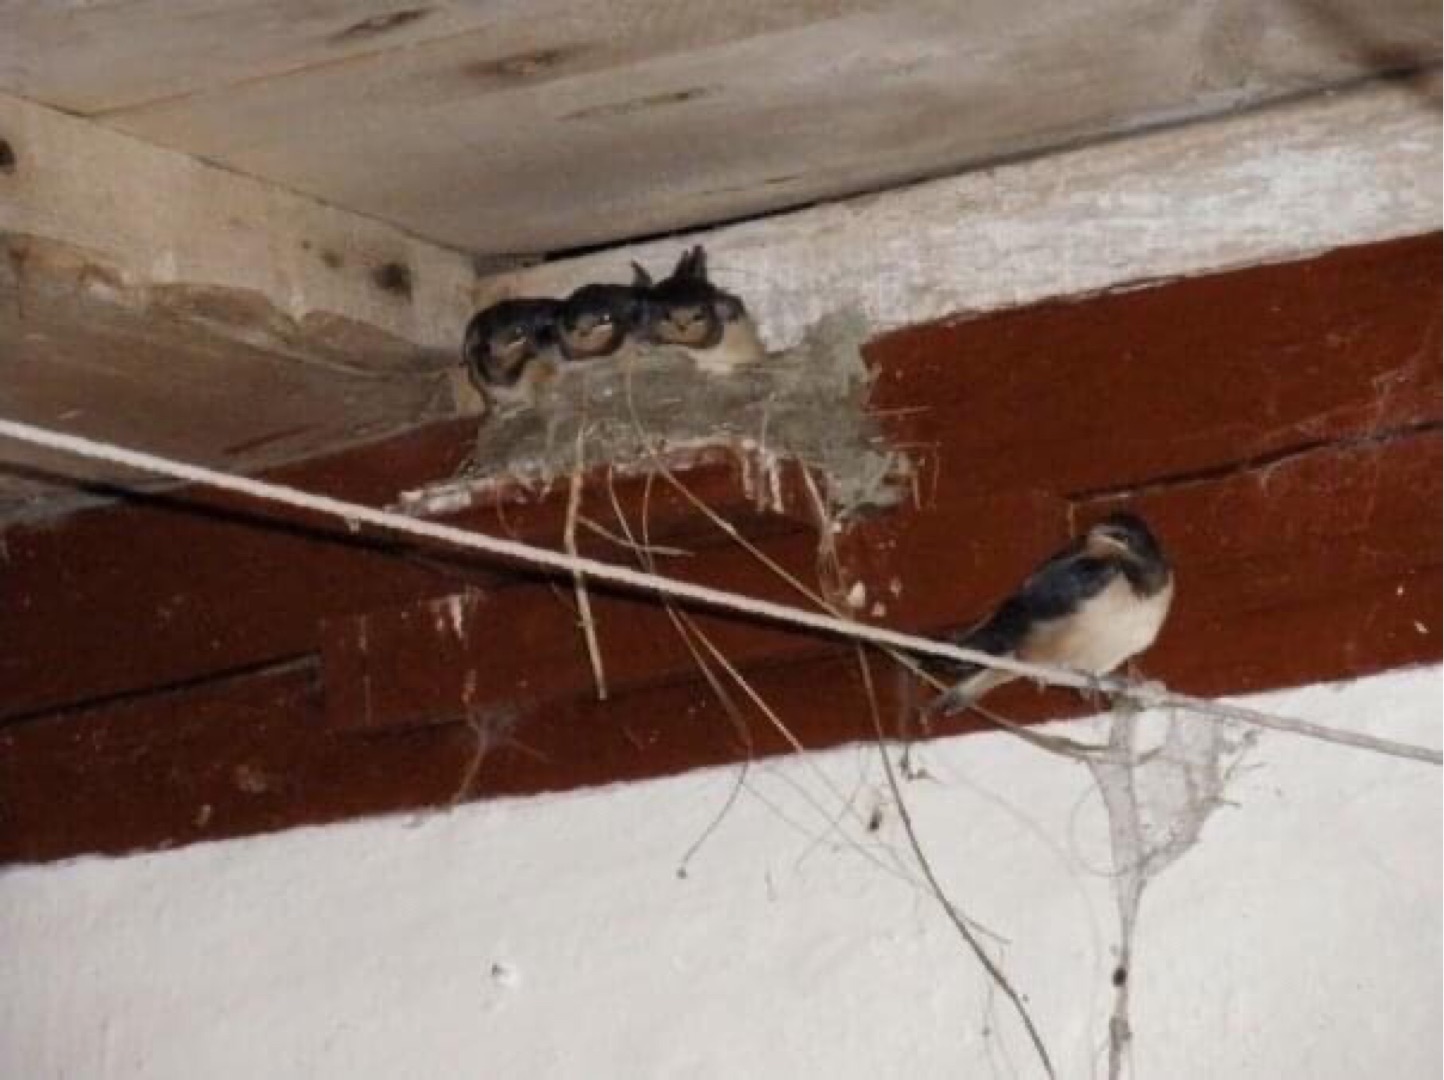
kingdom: Animalia
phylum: Chordata
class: Aves
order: Passeriformes
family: Hirundinidae
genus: Hirundo
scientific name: Hirundo rustica
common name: Landsvale
